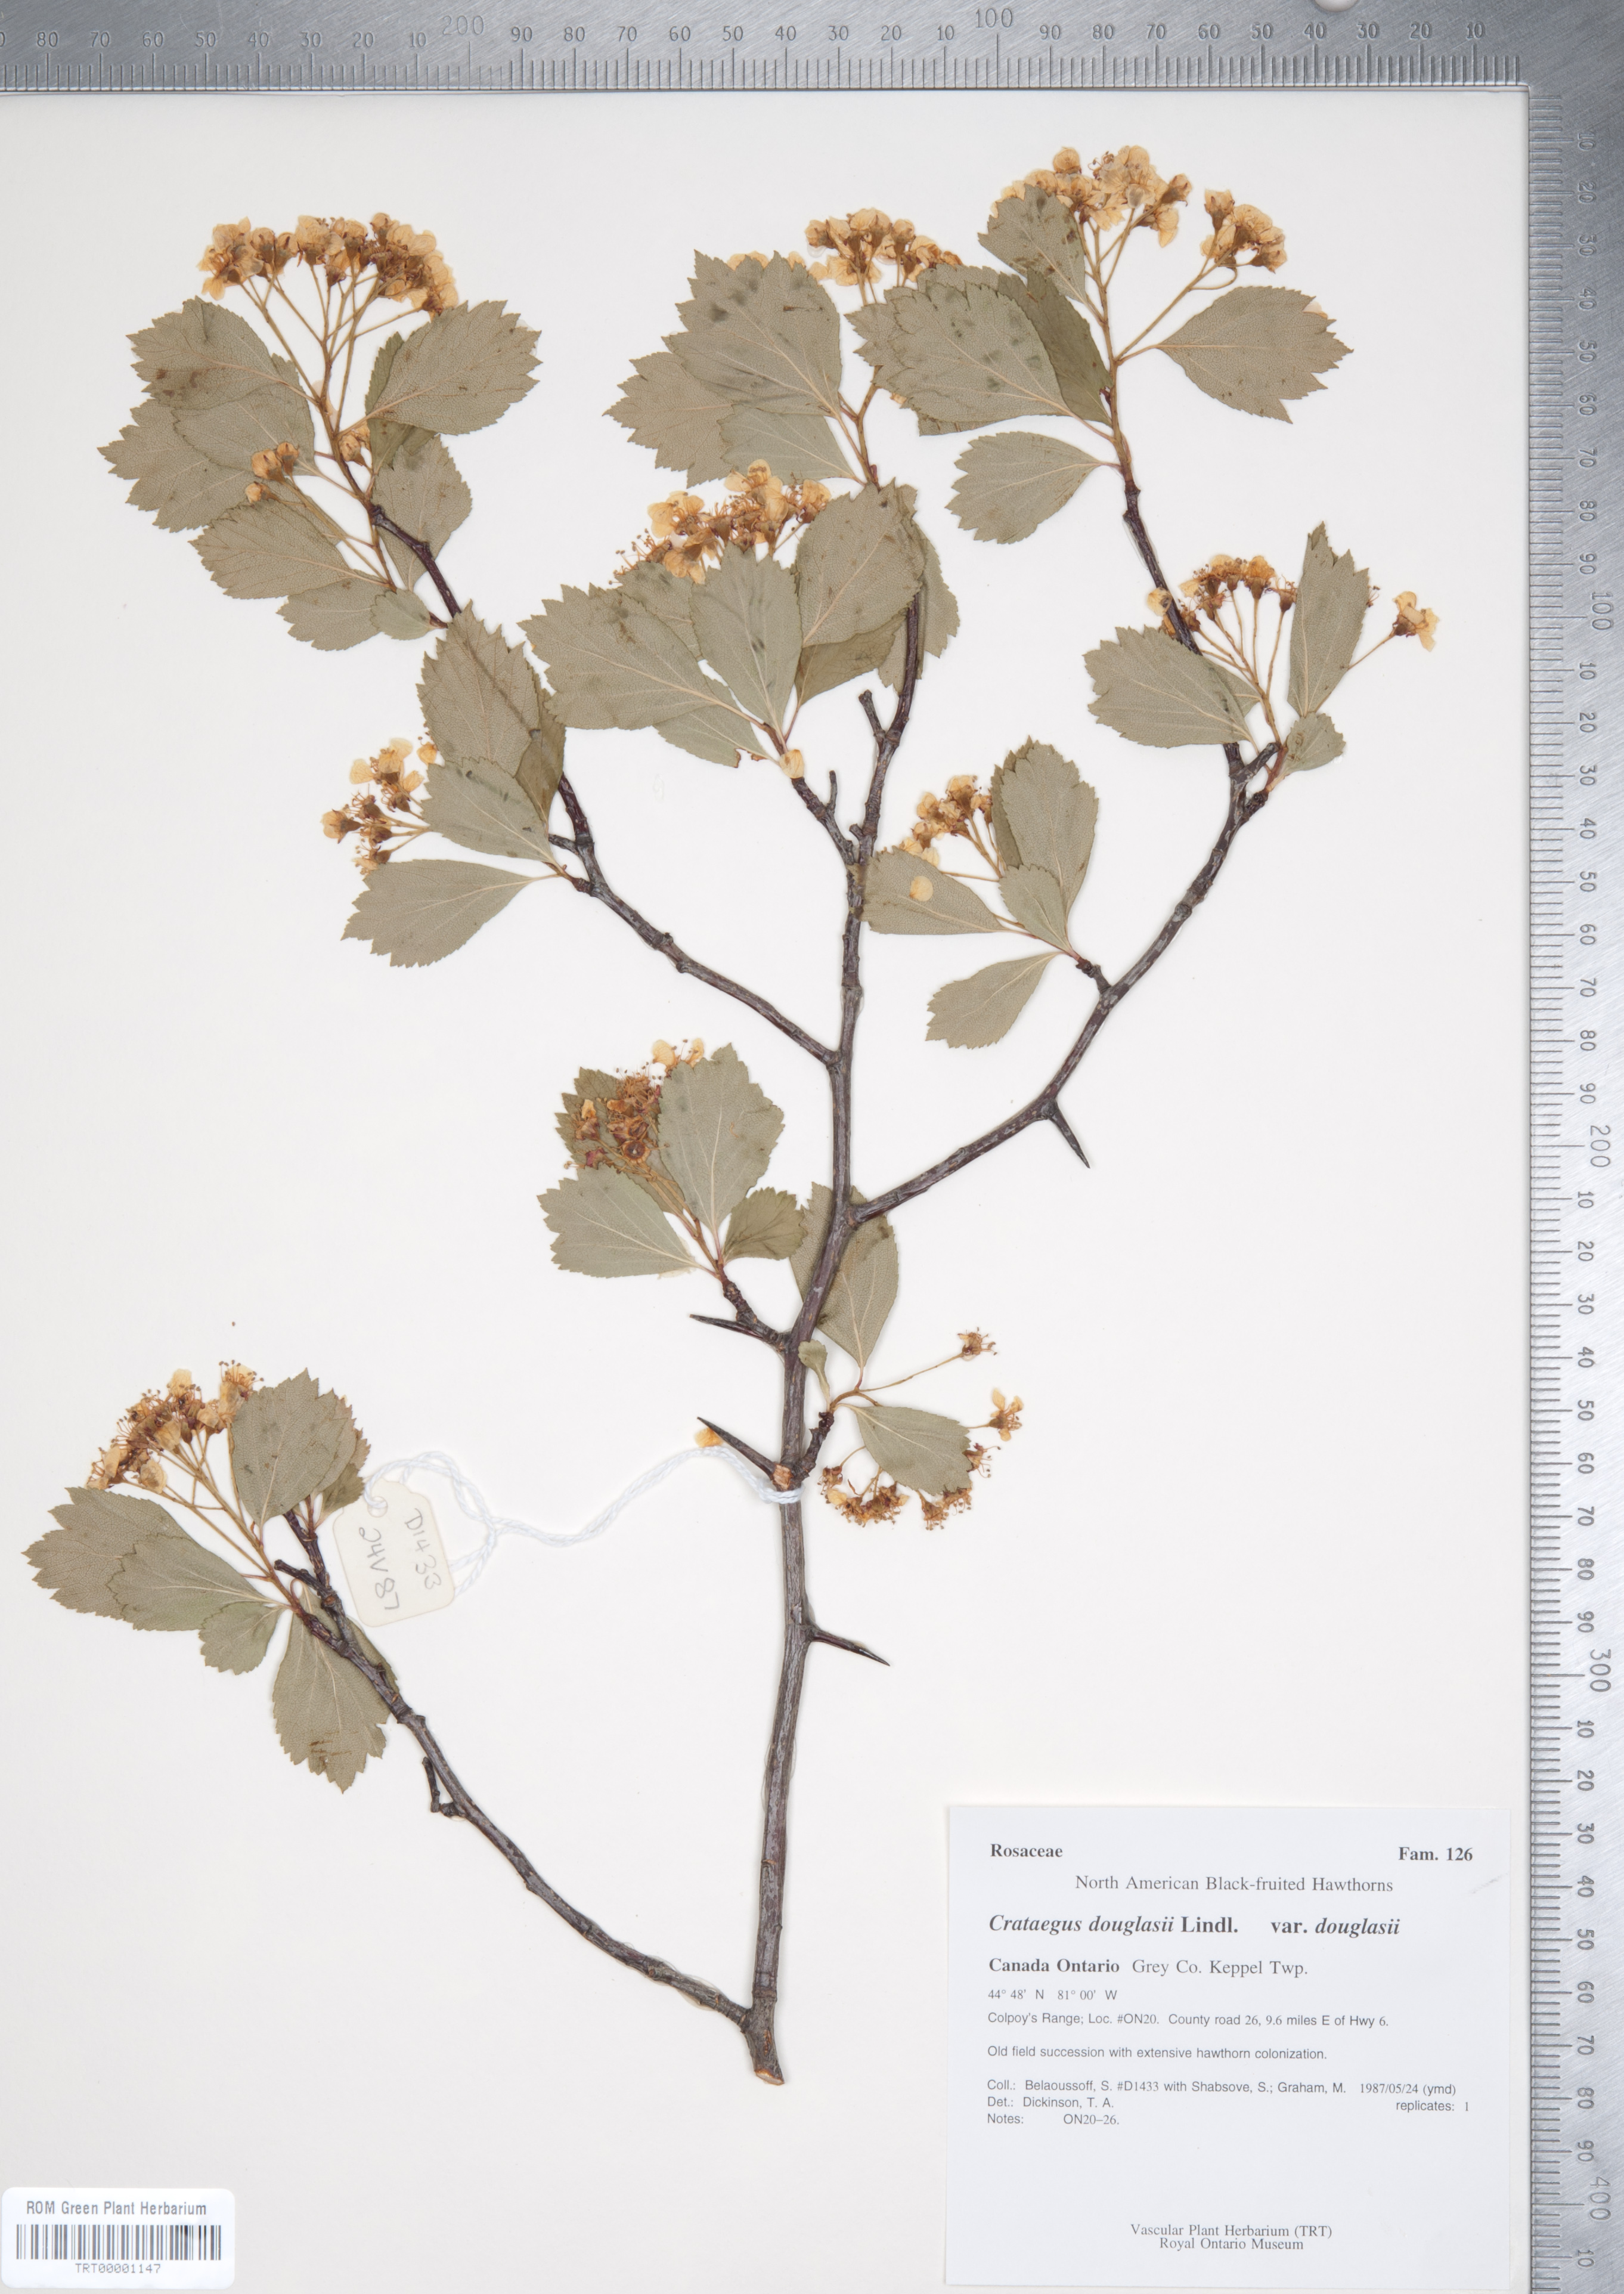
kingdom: Plantae
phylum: Tracheophyta
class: Magnoliopsida
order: Rosales
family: Rosaceae
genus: Crataegus
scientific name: Crataegus douglasii
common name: Black hawthorn
